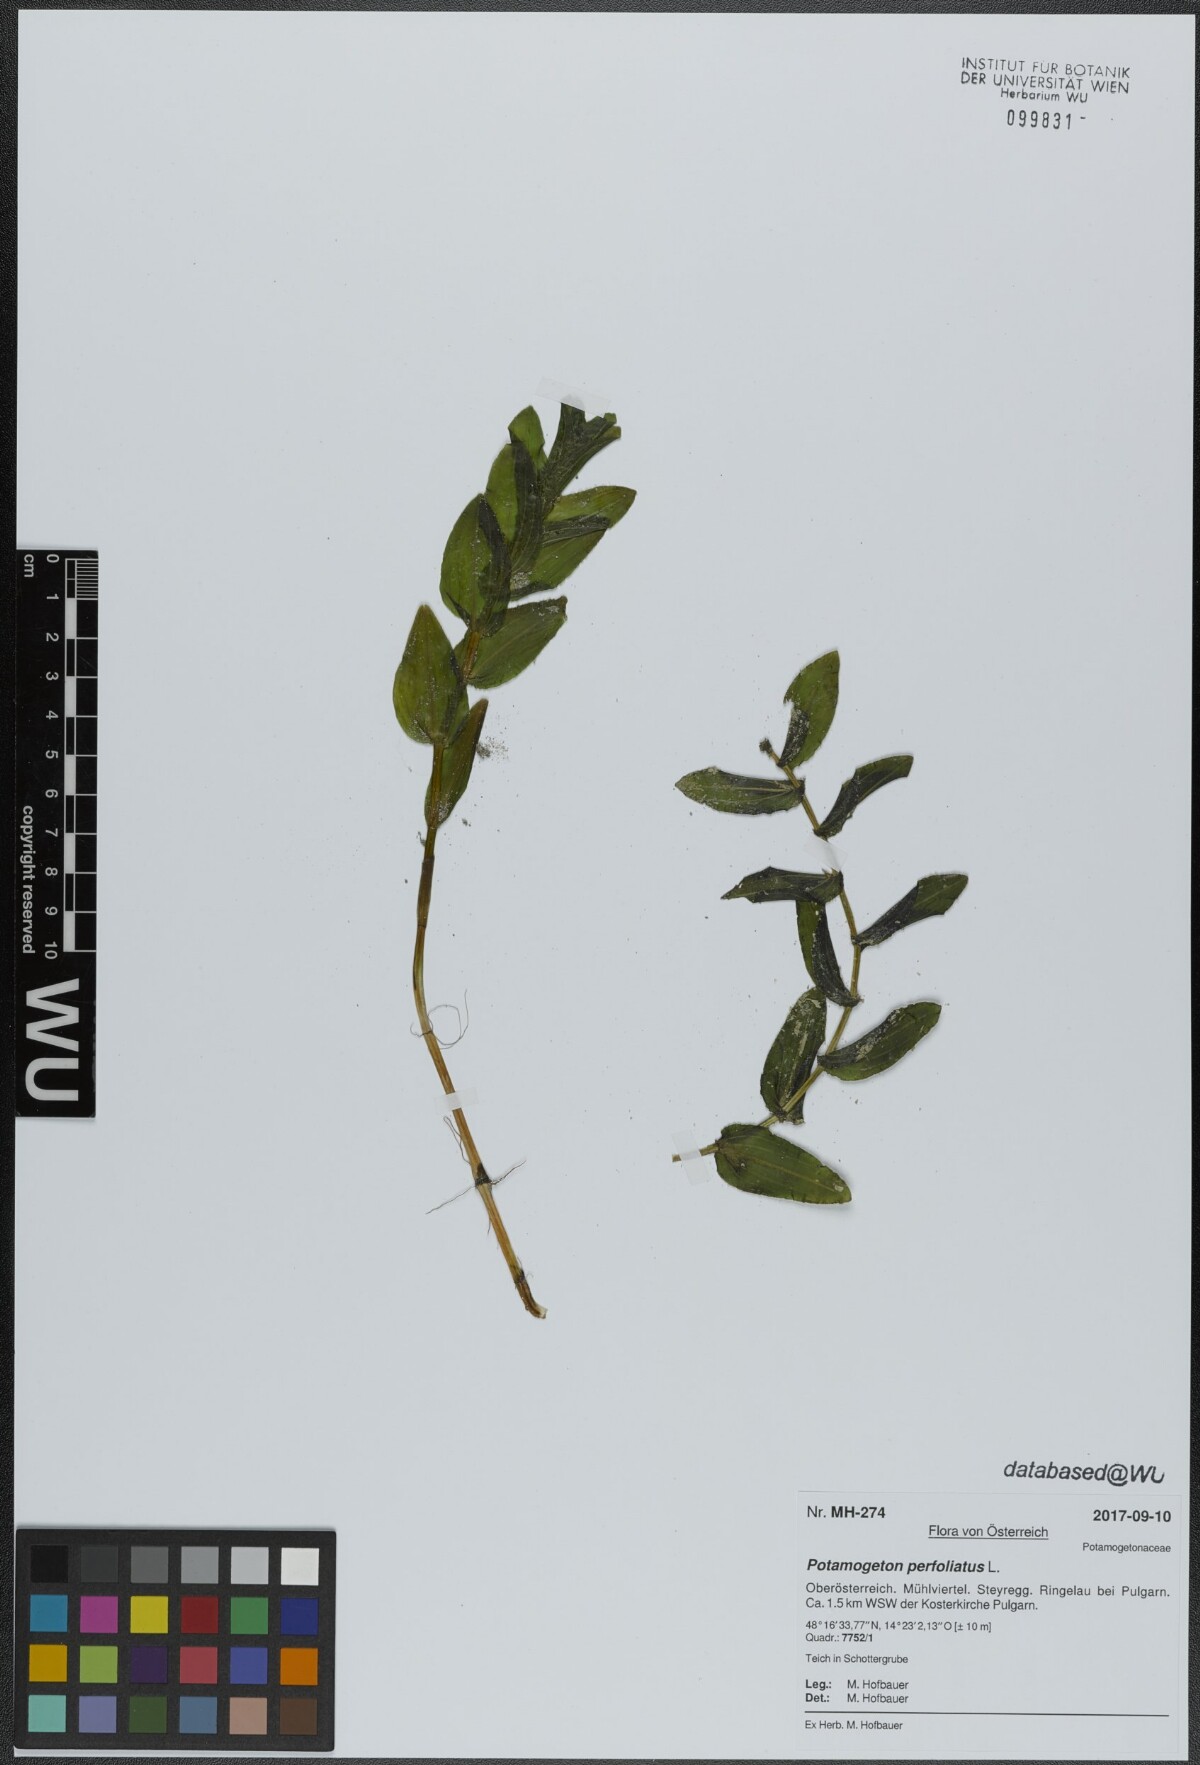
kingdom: Plantae
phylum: Tracheophyta
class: Liliopsida
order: Alismatales
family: Potamogetonaceae
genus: Potamogeton
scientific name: Potamogeton perfoliatus
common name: Perfoliate pondweed
